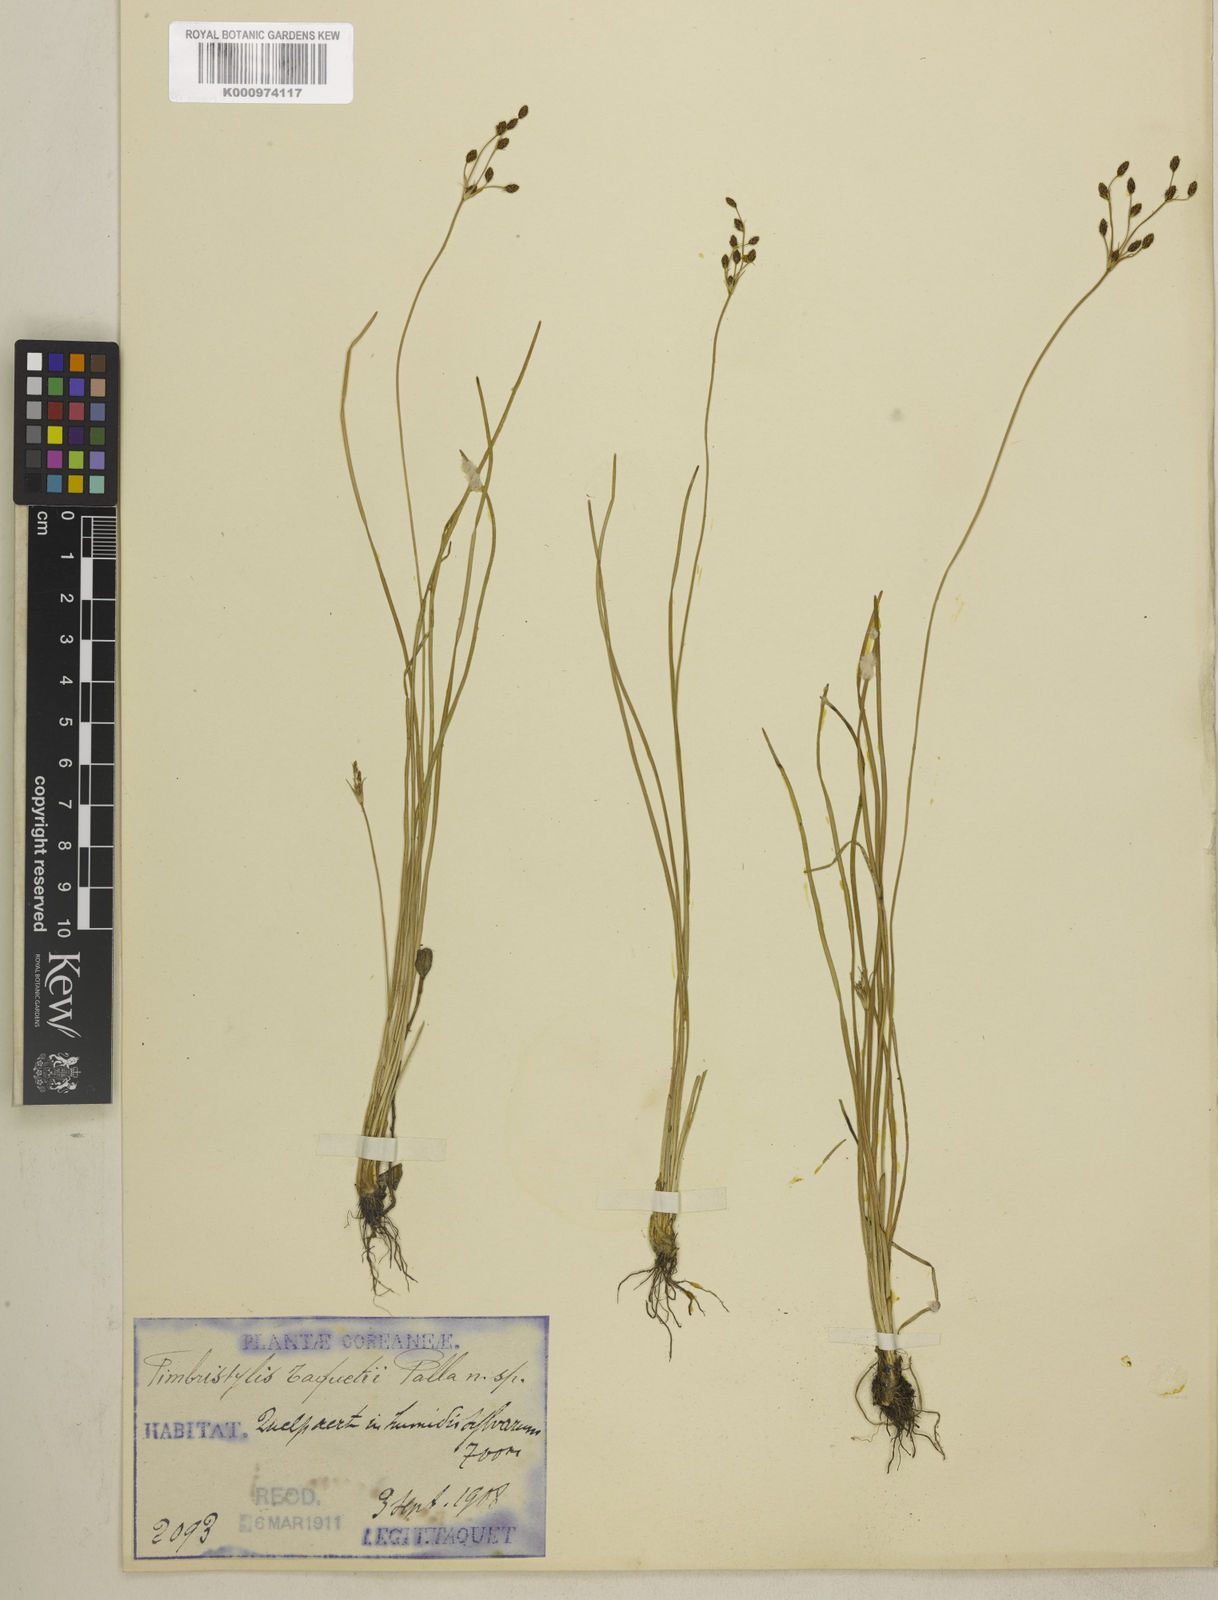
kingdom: Plantae
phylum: Tracheophyta
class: Liliopsida
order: Poales
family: Cyperaceae
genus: Fimbristylis
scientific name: Fimbristylis
